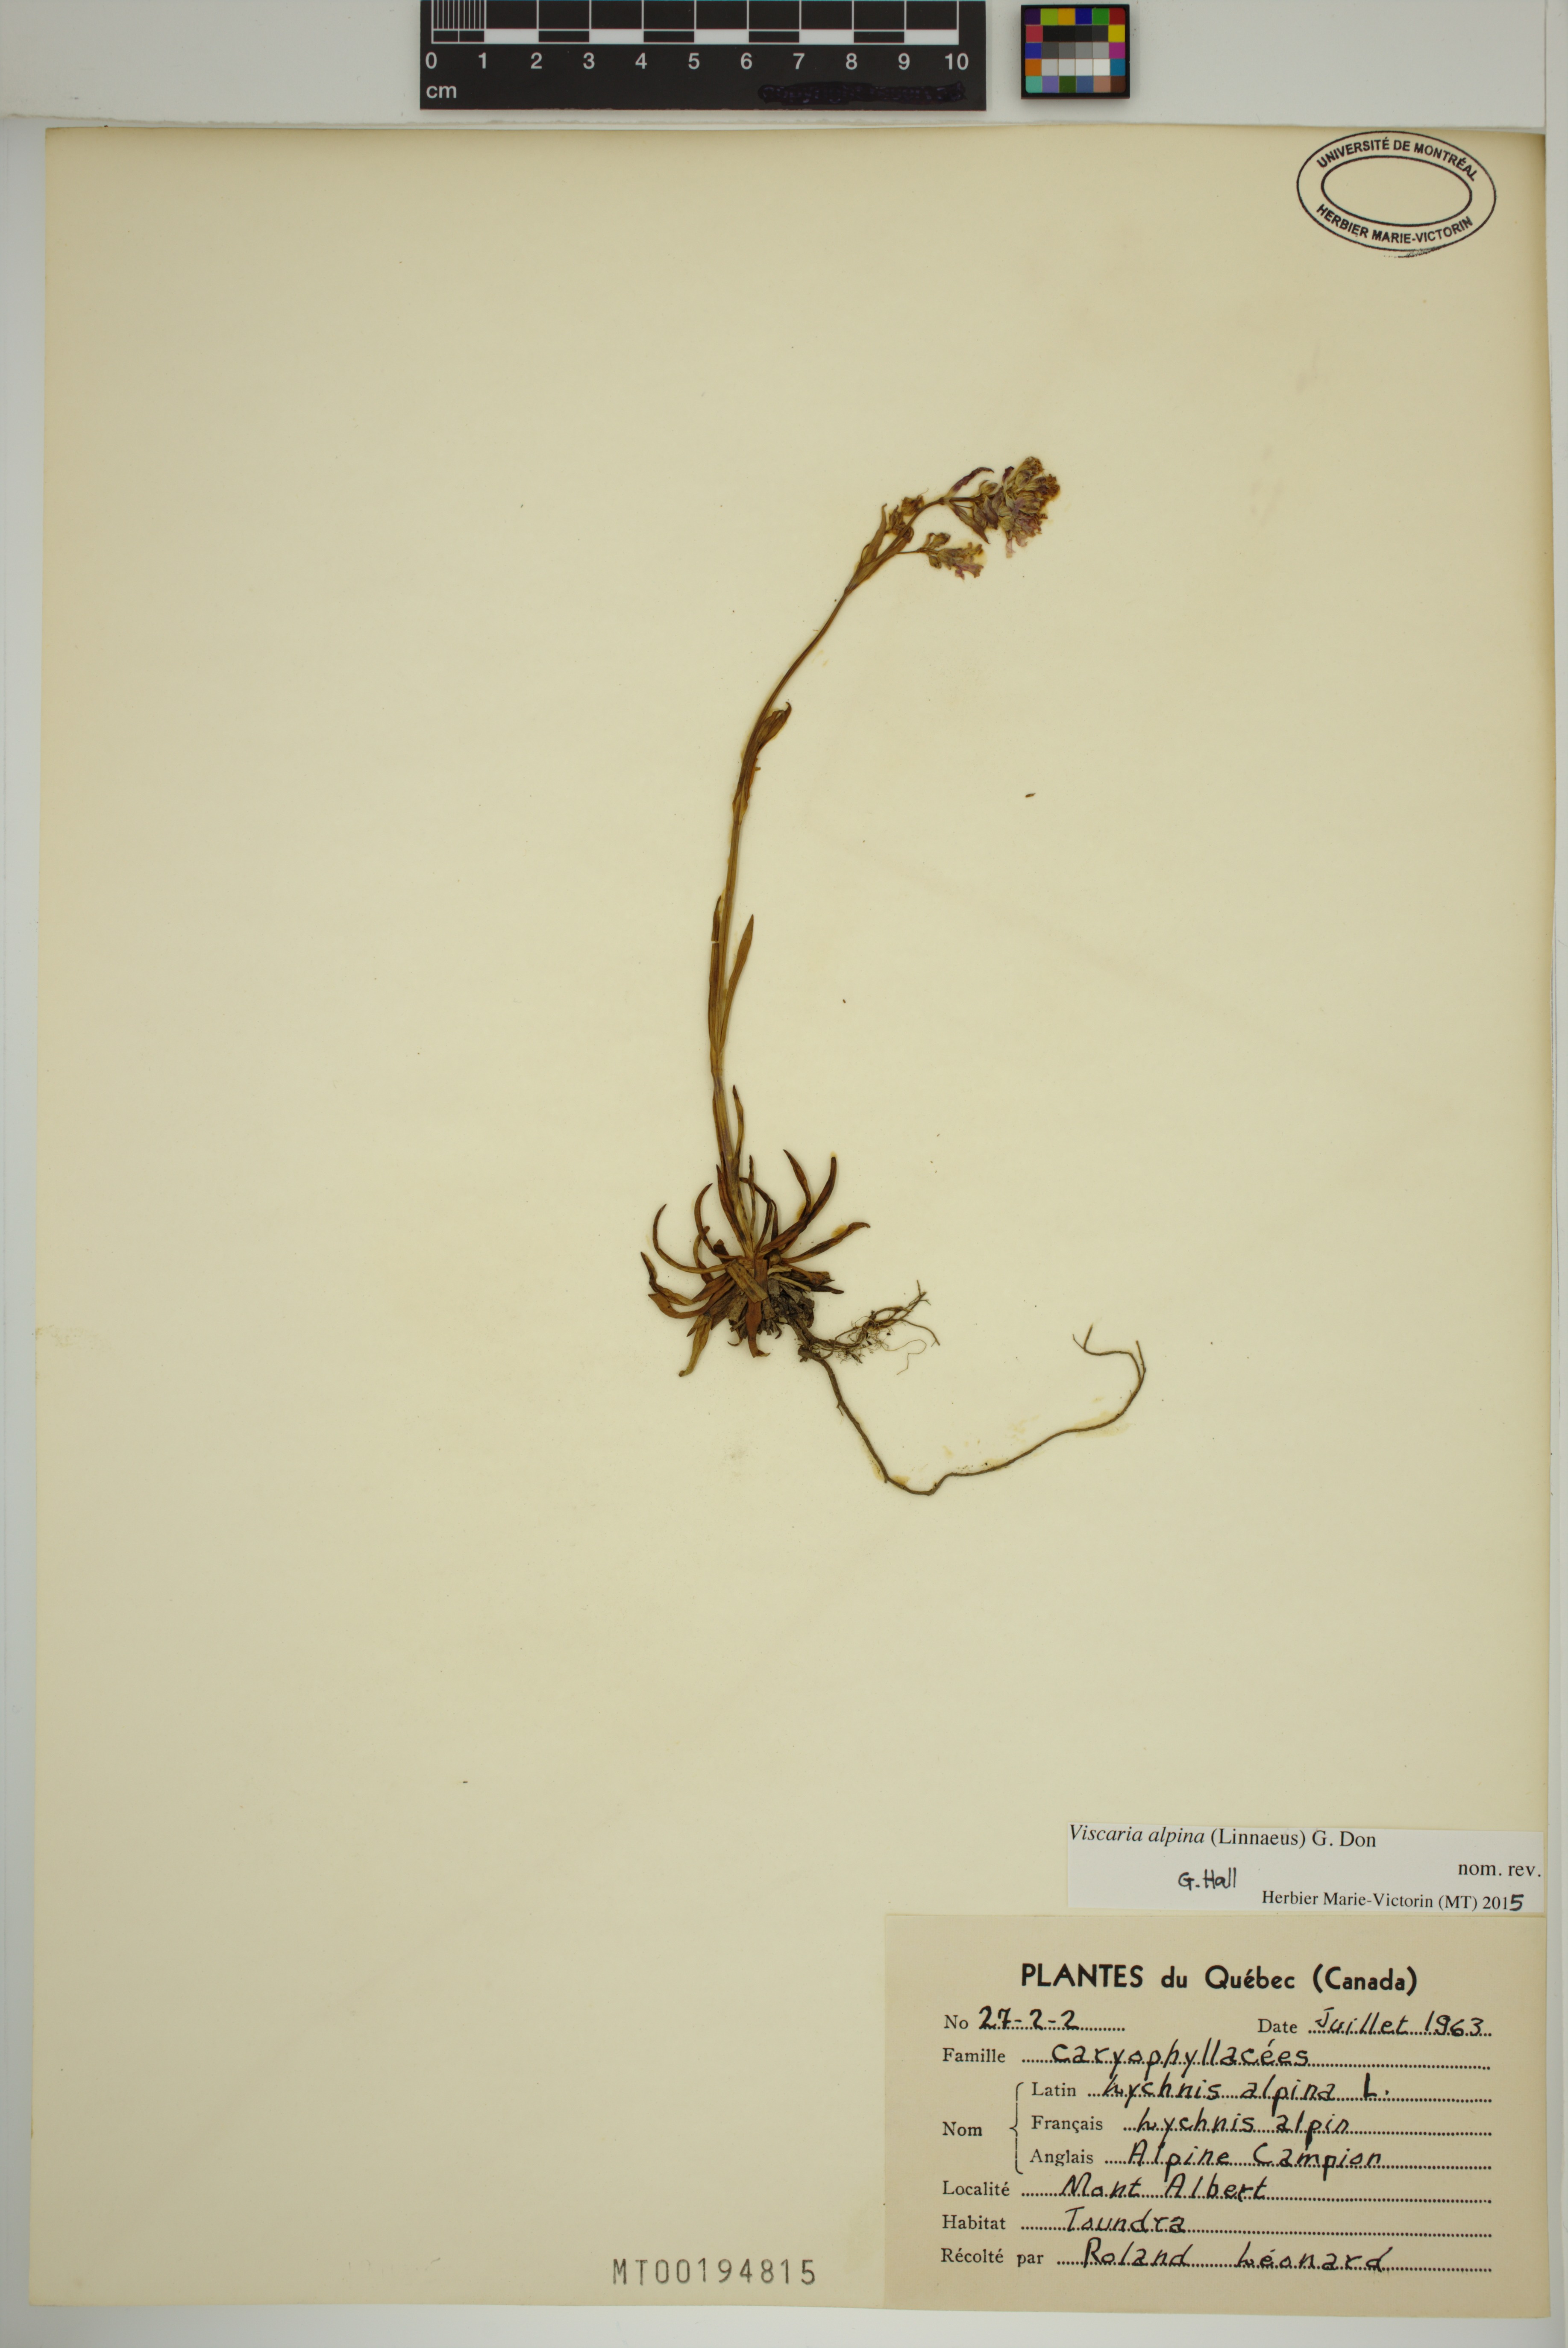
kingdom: Plantae
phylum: Tracheophyta
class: Magnoliopsida
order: Caryophyllales
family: Caryophyllaceae
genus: Viscaria
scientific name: Viscaria alpina
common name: Alpine campion
